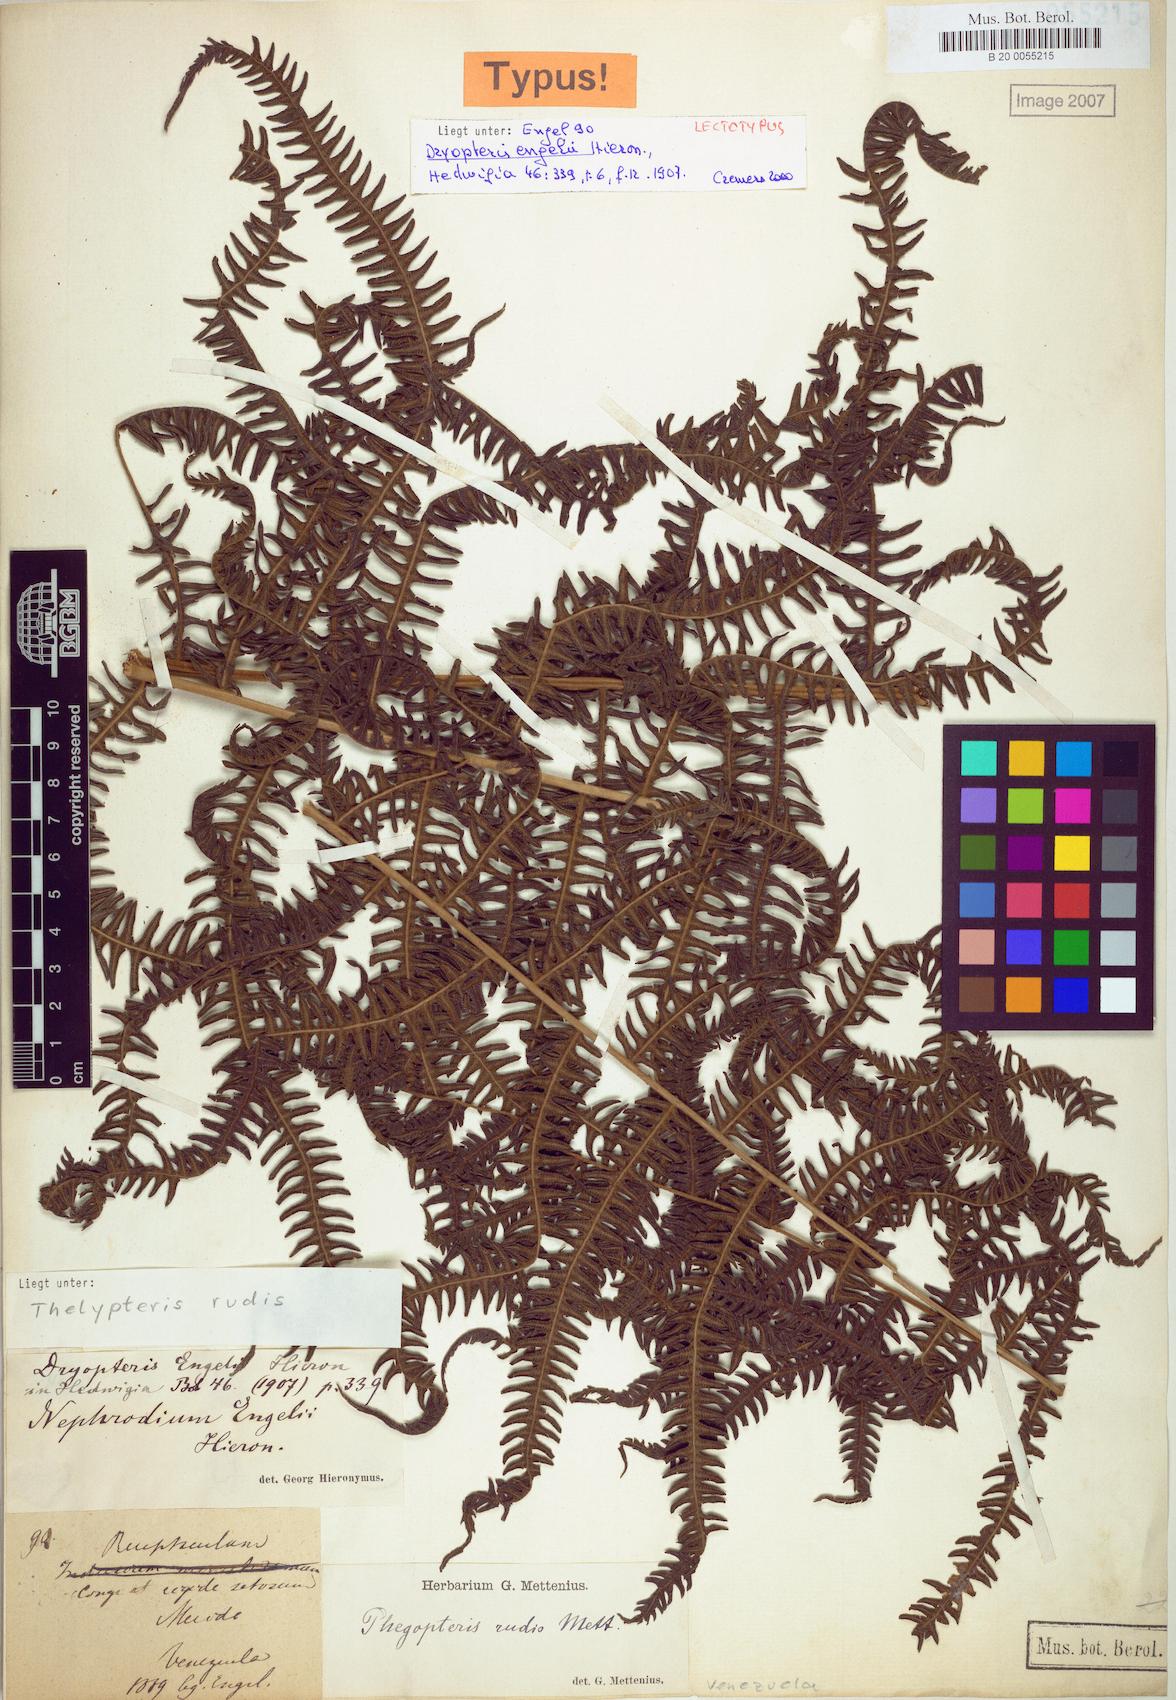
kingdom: Plantae
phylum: Tracheophyta
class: Polypodiopsida
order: Polypodiales
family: Thelypteridaceae
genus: Amauropelta
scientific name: Amauropelta rudis
